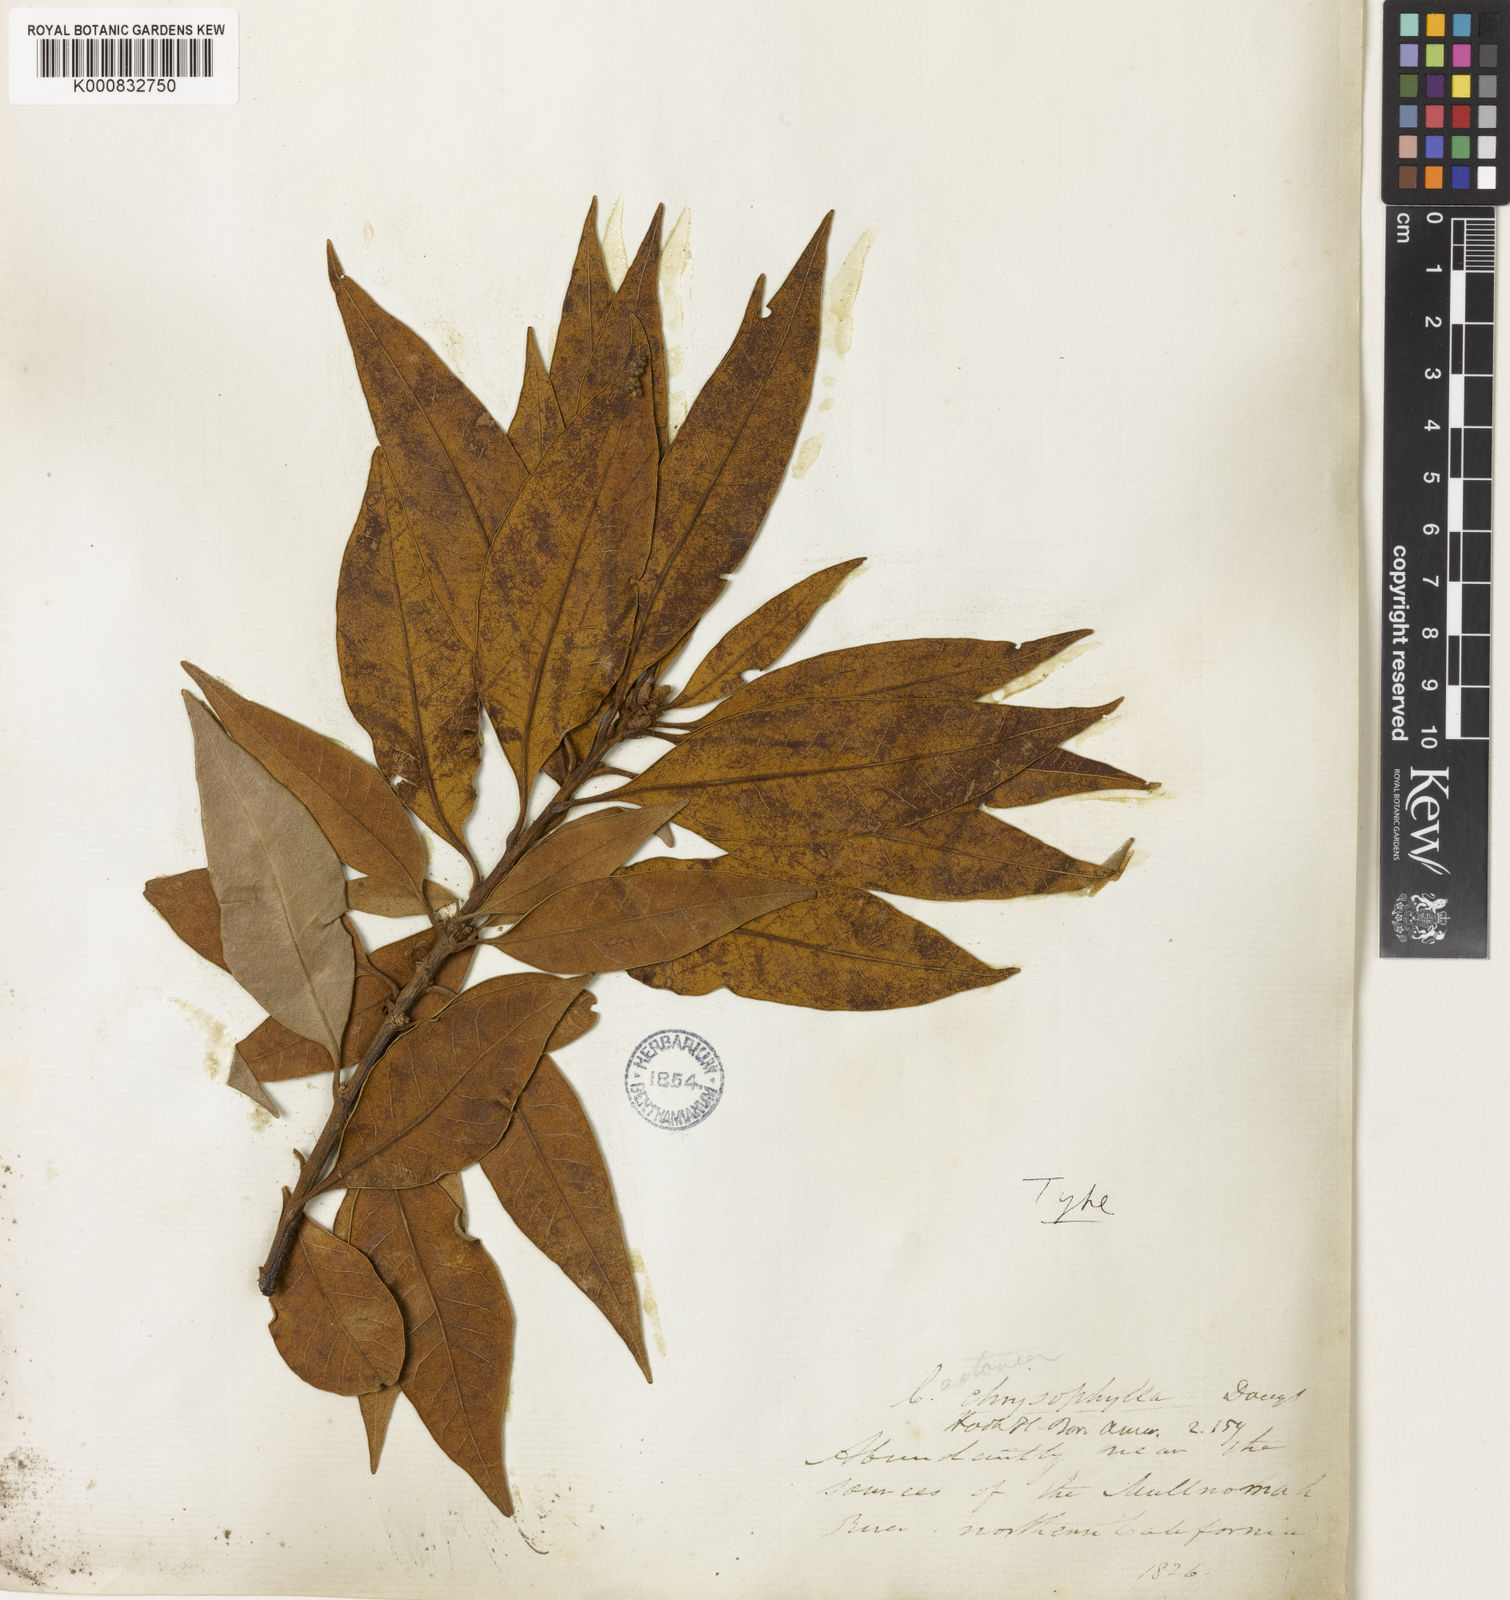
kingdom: Plantae
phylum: Tracheophyta
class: Magnoliopsida
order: Fagales
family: Fagaceae
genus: Chrysolepis
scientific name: Chrysolepis chrysophylla
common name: Giant chinquapin
